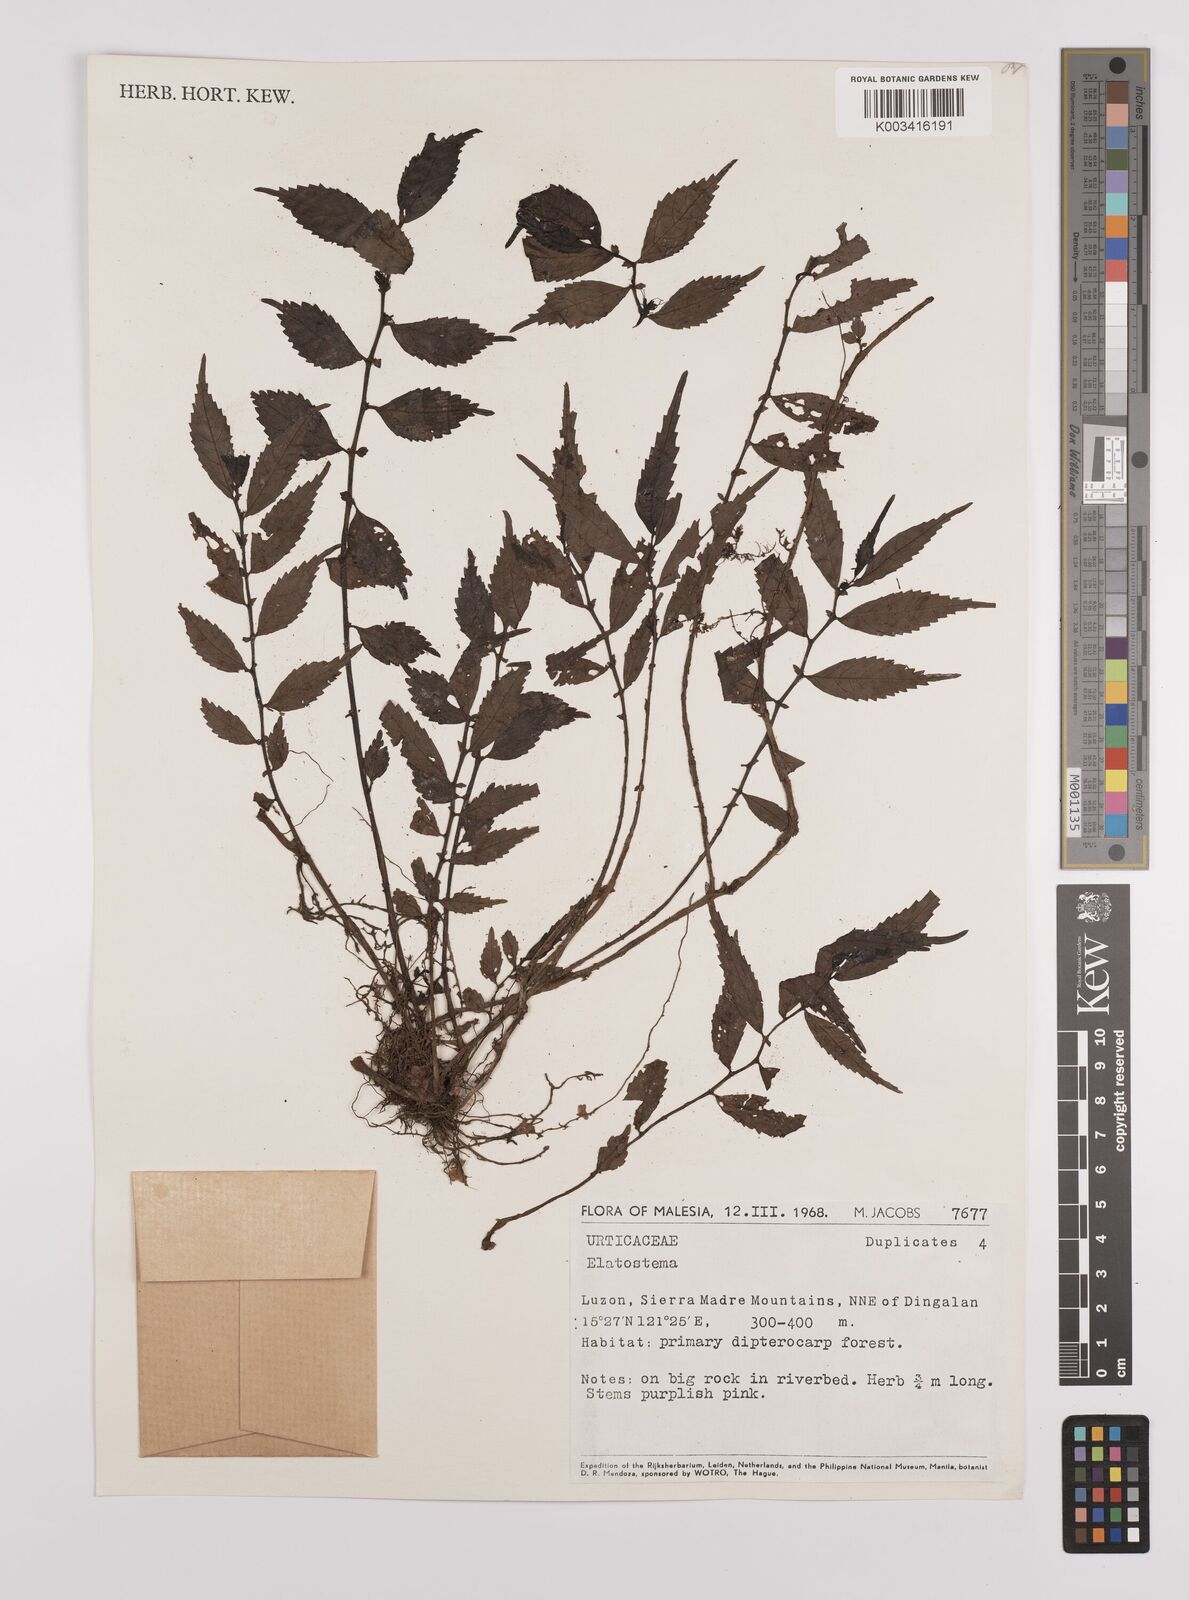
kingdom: Plantae
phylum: Tracheophyta
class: Magnoliopsida
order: Rosales
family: Urticaceae
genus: Elatostema
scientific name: Elatostema
